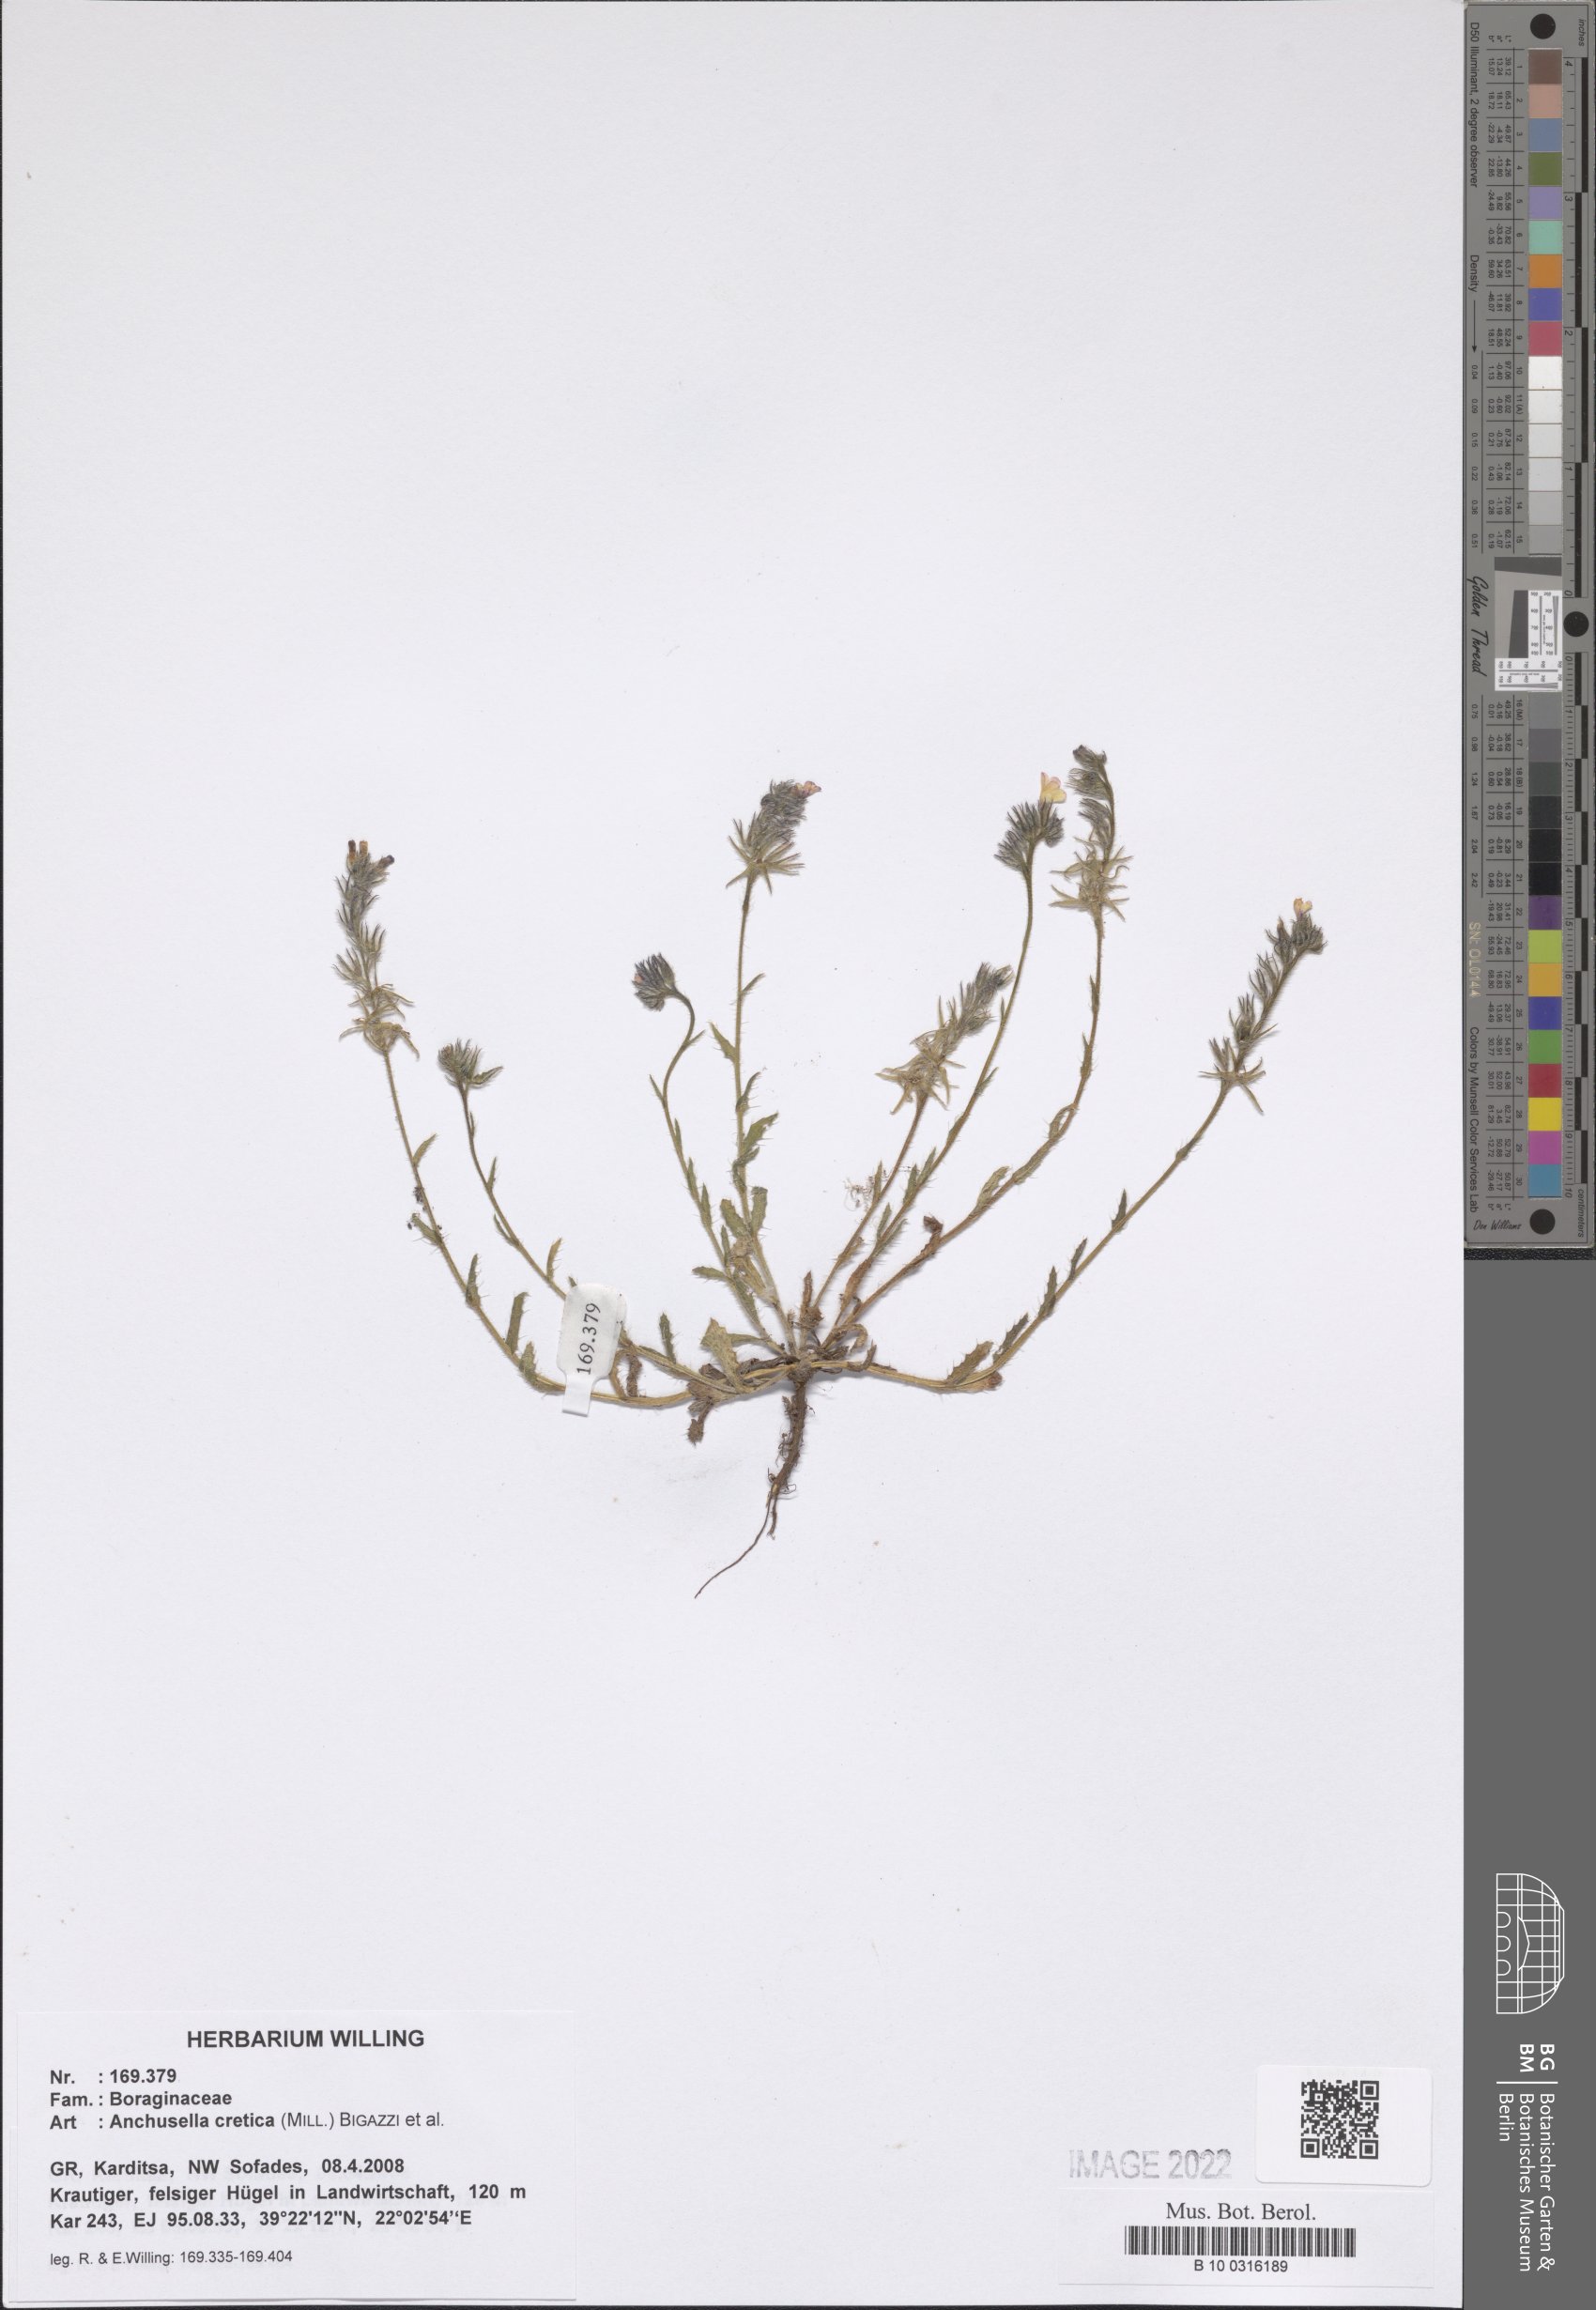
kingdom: Plantae
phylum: Tracheophyta
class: Magnoliopsida
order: Boraginales
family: Boraginaceae
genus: Anchusella
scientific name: Anchusella cretica
